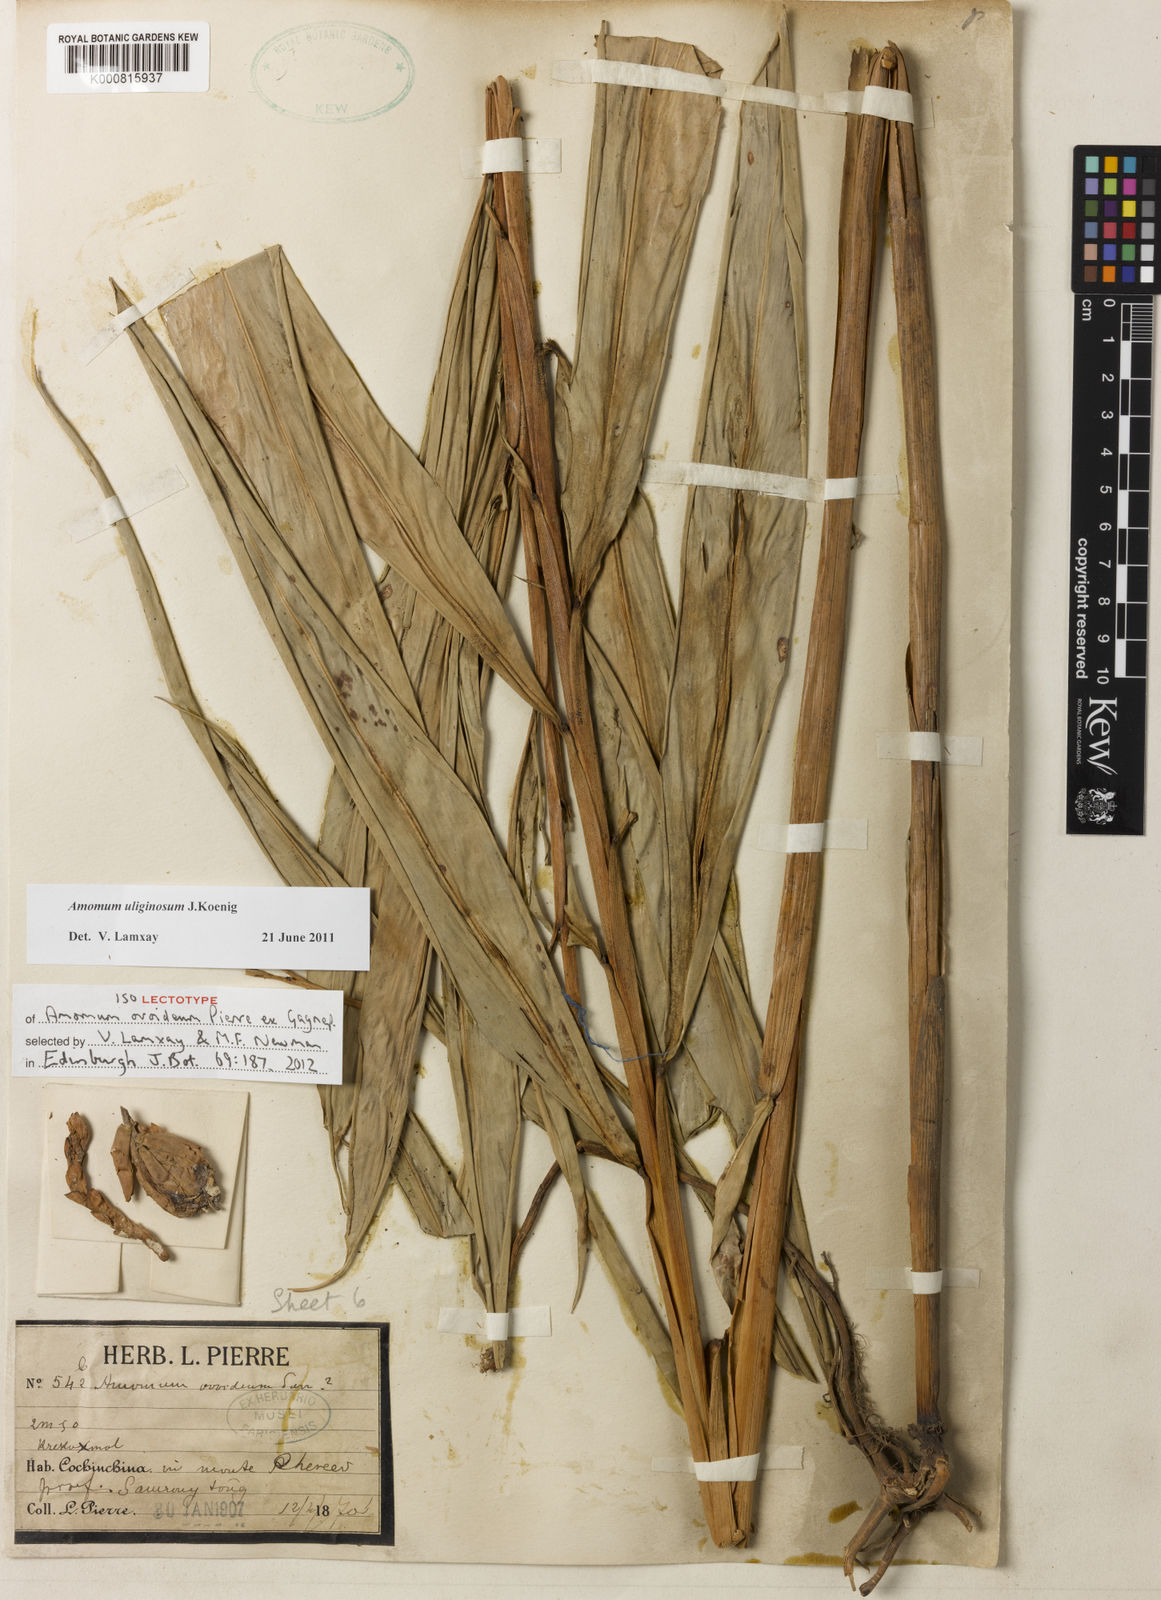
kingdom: Plantae
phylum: Tracheophyta
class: Liliopsida
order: Zingiberales
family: Zingiberaceae
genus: Wurfbainia
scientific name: Wurfbainia uliginosa
